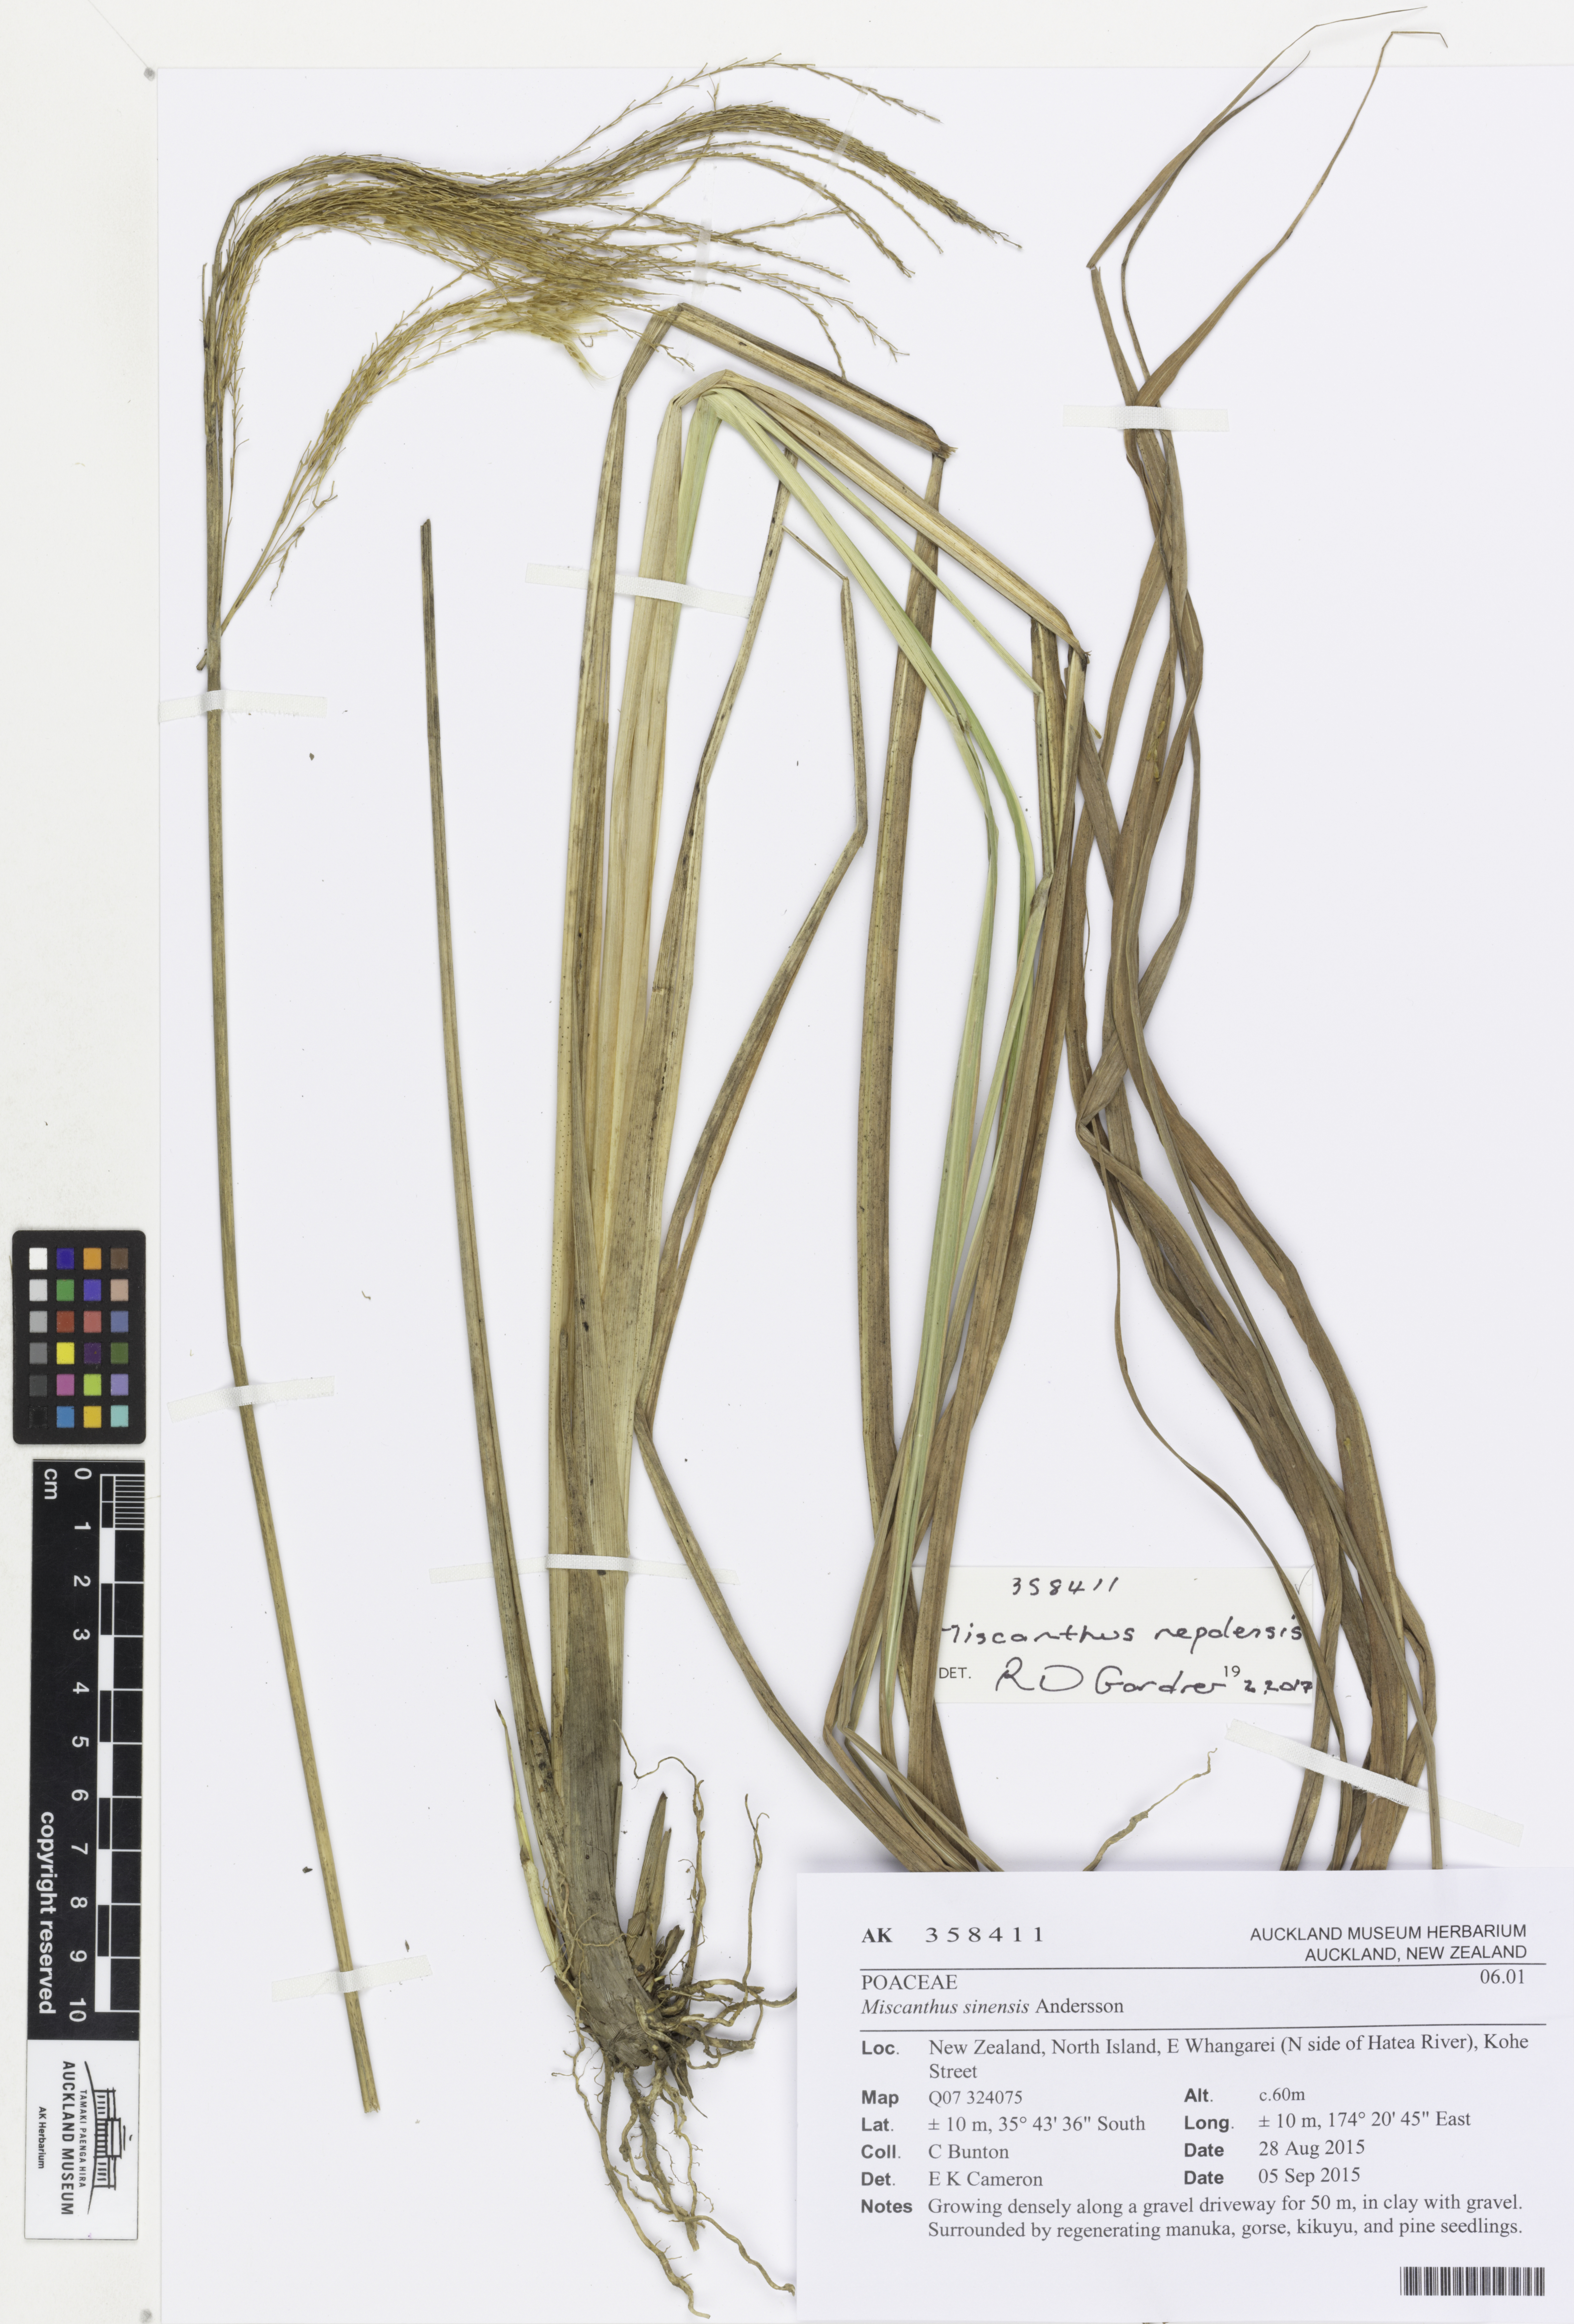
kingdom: Plantae
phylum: Tracheophyta
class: Liliopsida
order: Poales
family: Poaceae
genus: Miscanthus
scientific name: Miscanthus nepalensis
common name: Nepal silver grass
